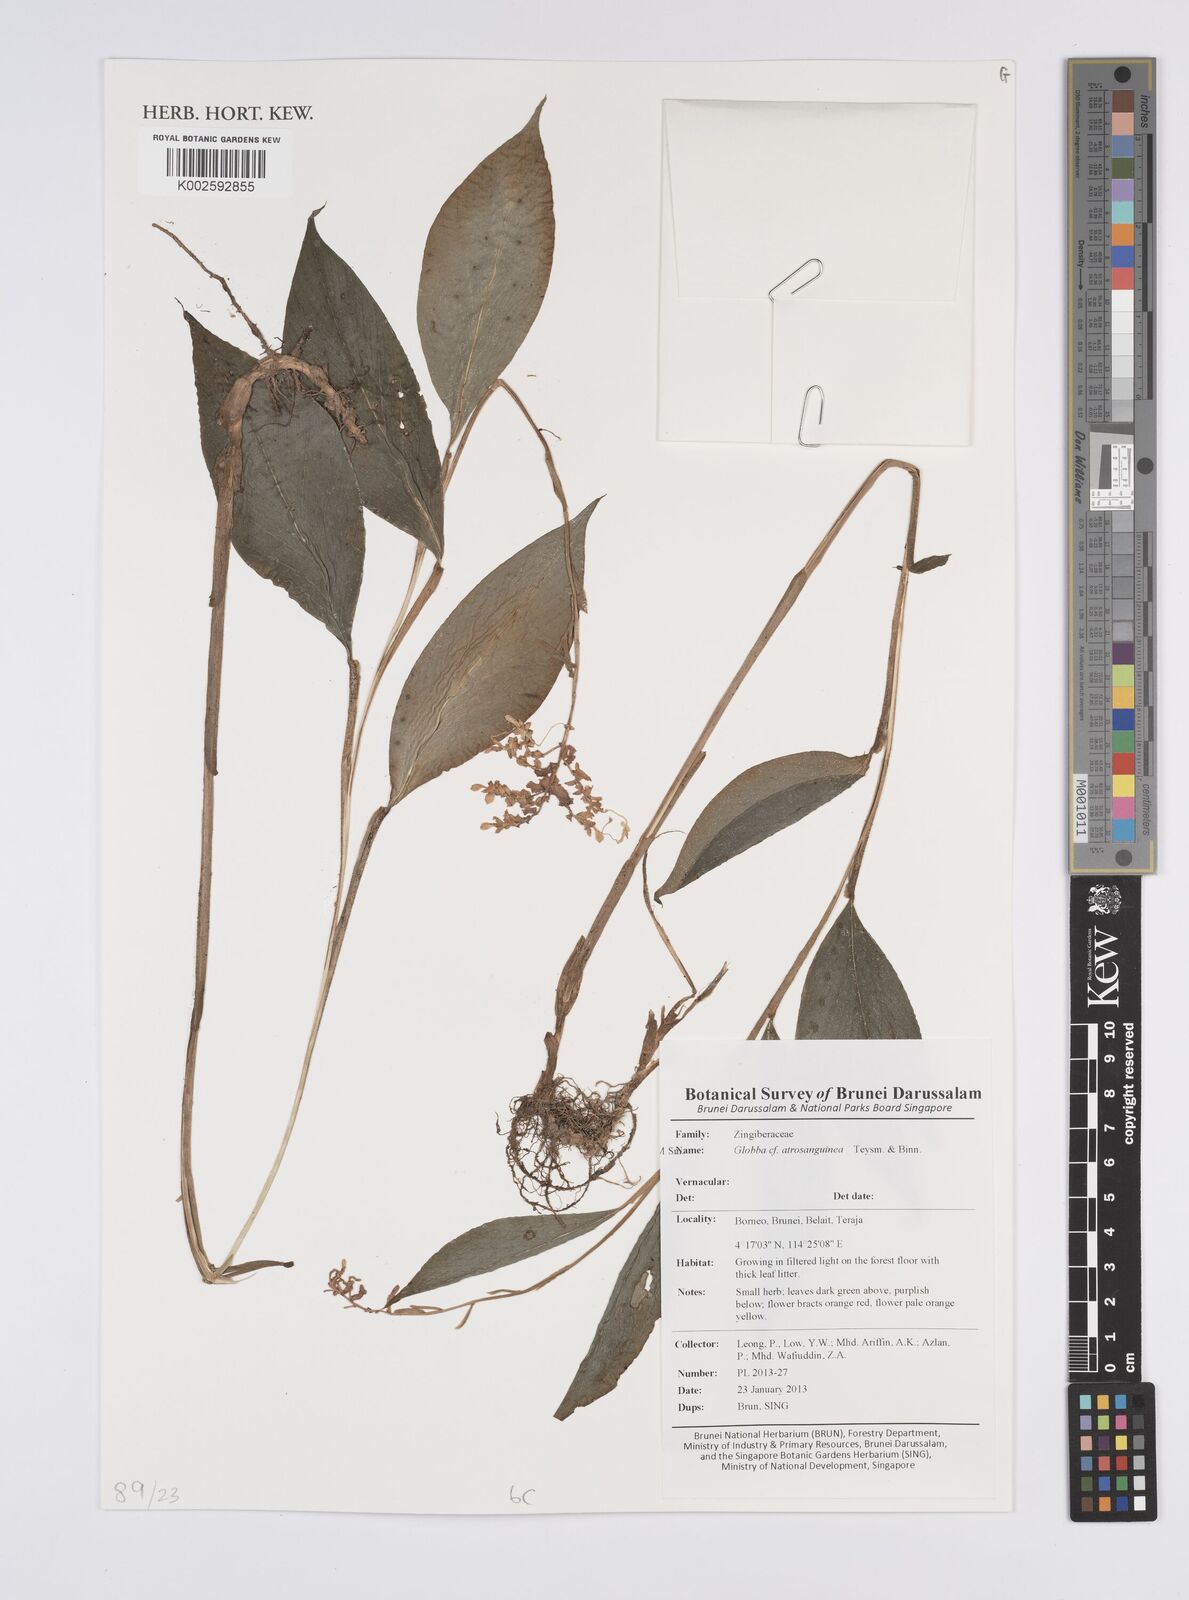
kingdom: Plantae
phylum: Tracheophyta
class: Liliopsida
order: Zingiberales
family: Zingiberaceae
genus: Globba
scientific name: Globba atrosanguinea
